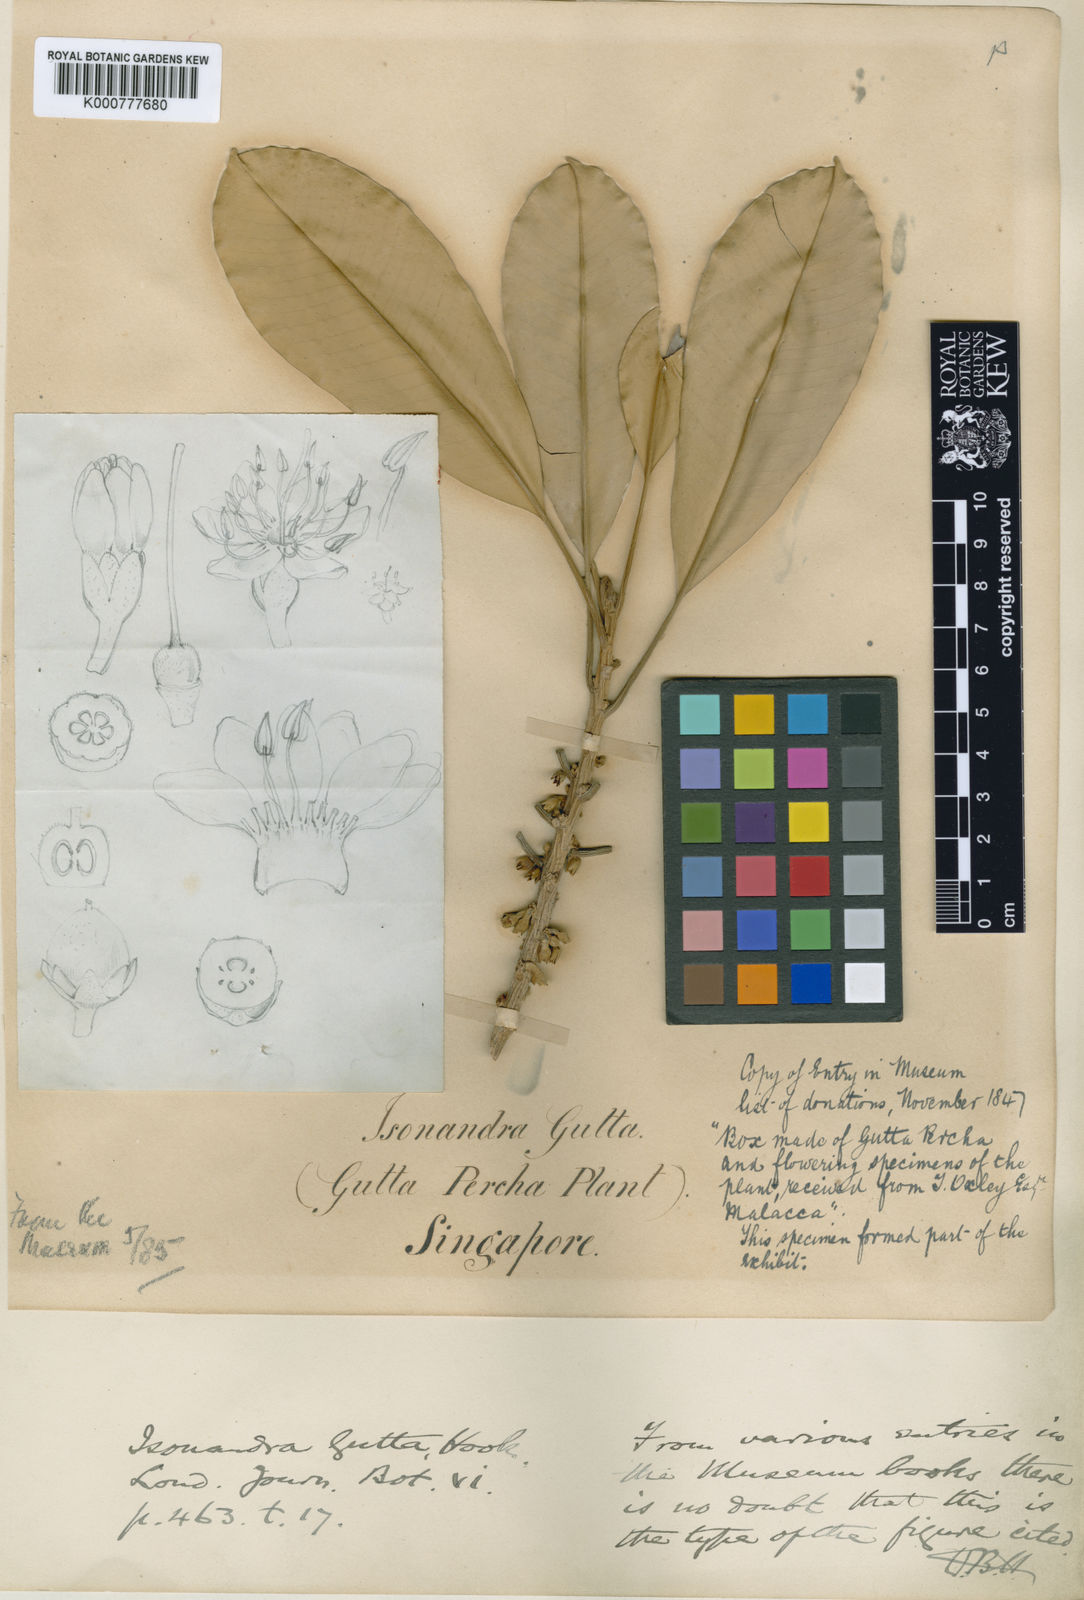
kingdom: Plantae
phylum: Tracheophyta
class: Magnoliopsida
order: Ericales
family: Sapotaceae
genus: Palaquium
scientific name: Palaquium
